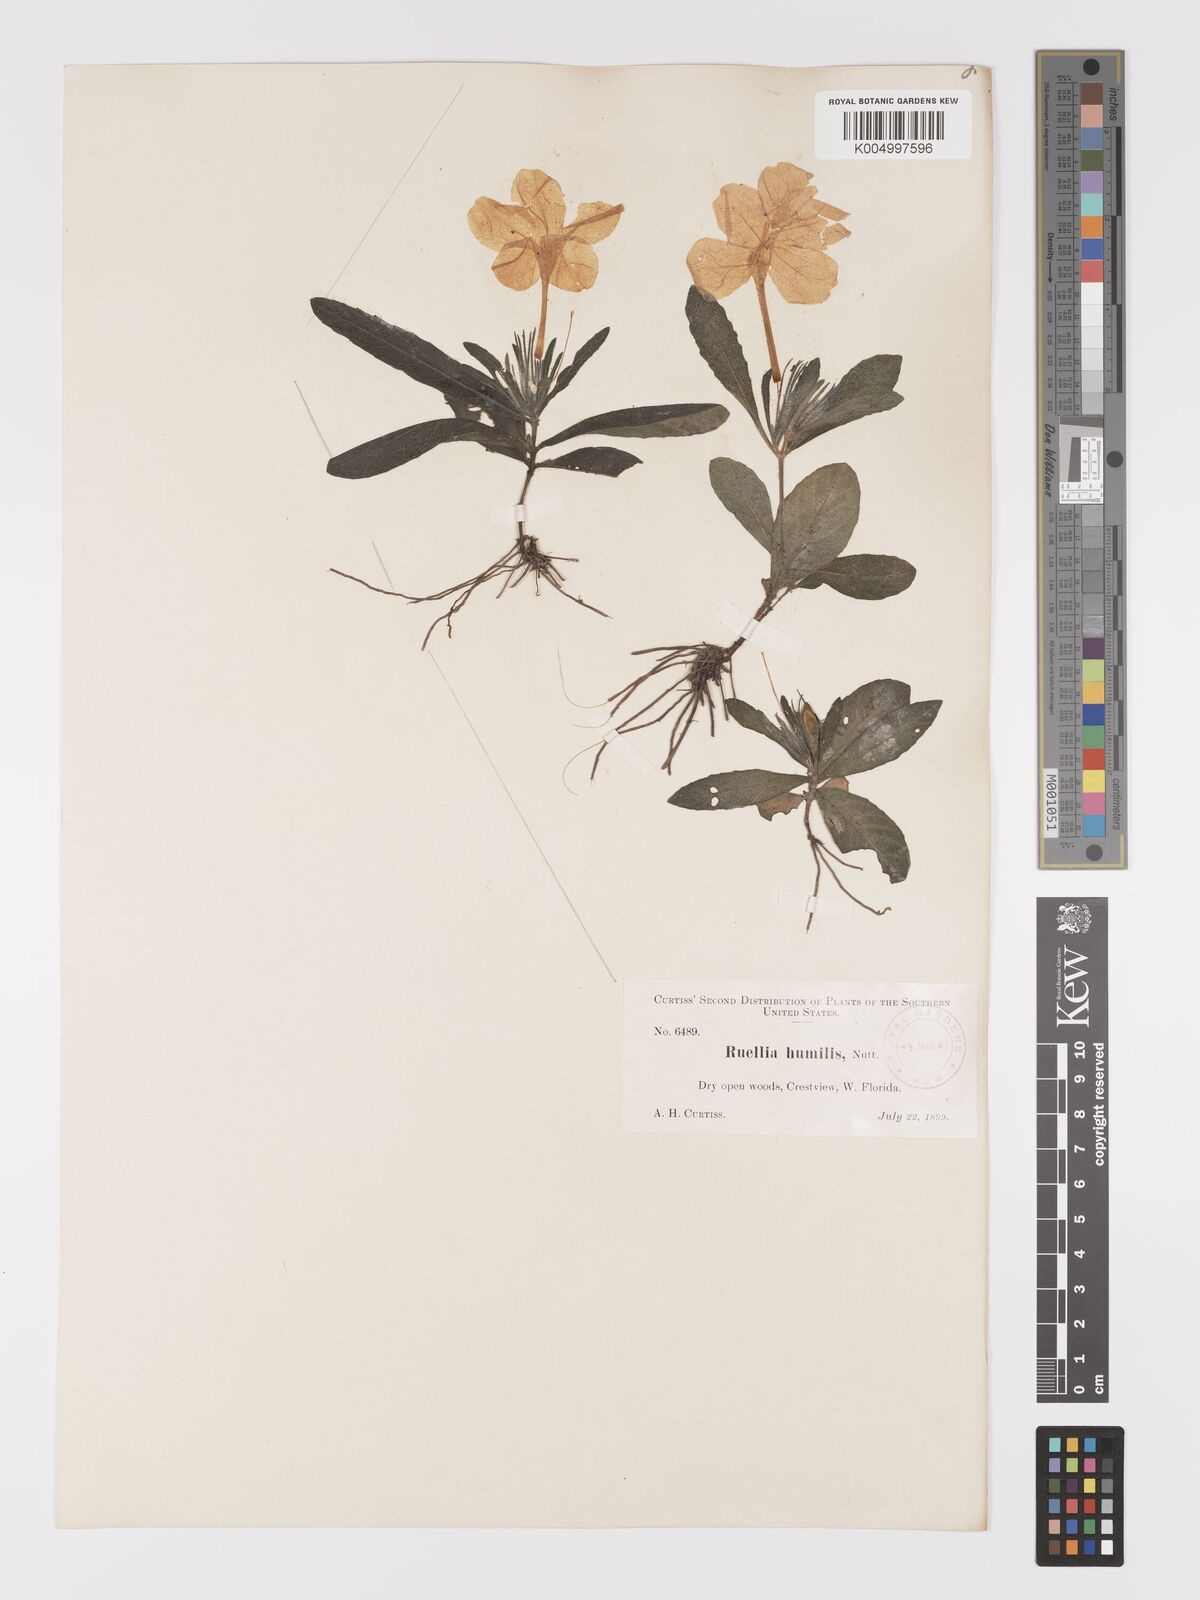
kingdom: Plantae
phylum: Tracheophyta
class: Magnoliopsida
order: Lamiales
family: Acanthaceae
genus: Ruellia
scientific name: Ruellia
